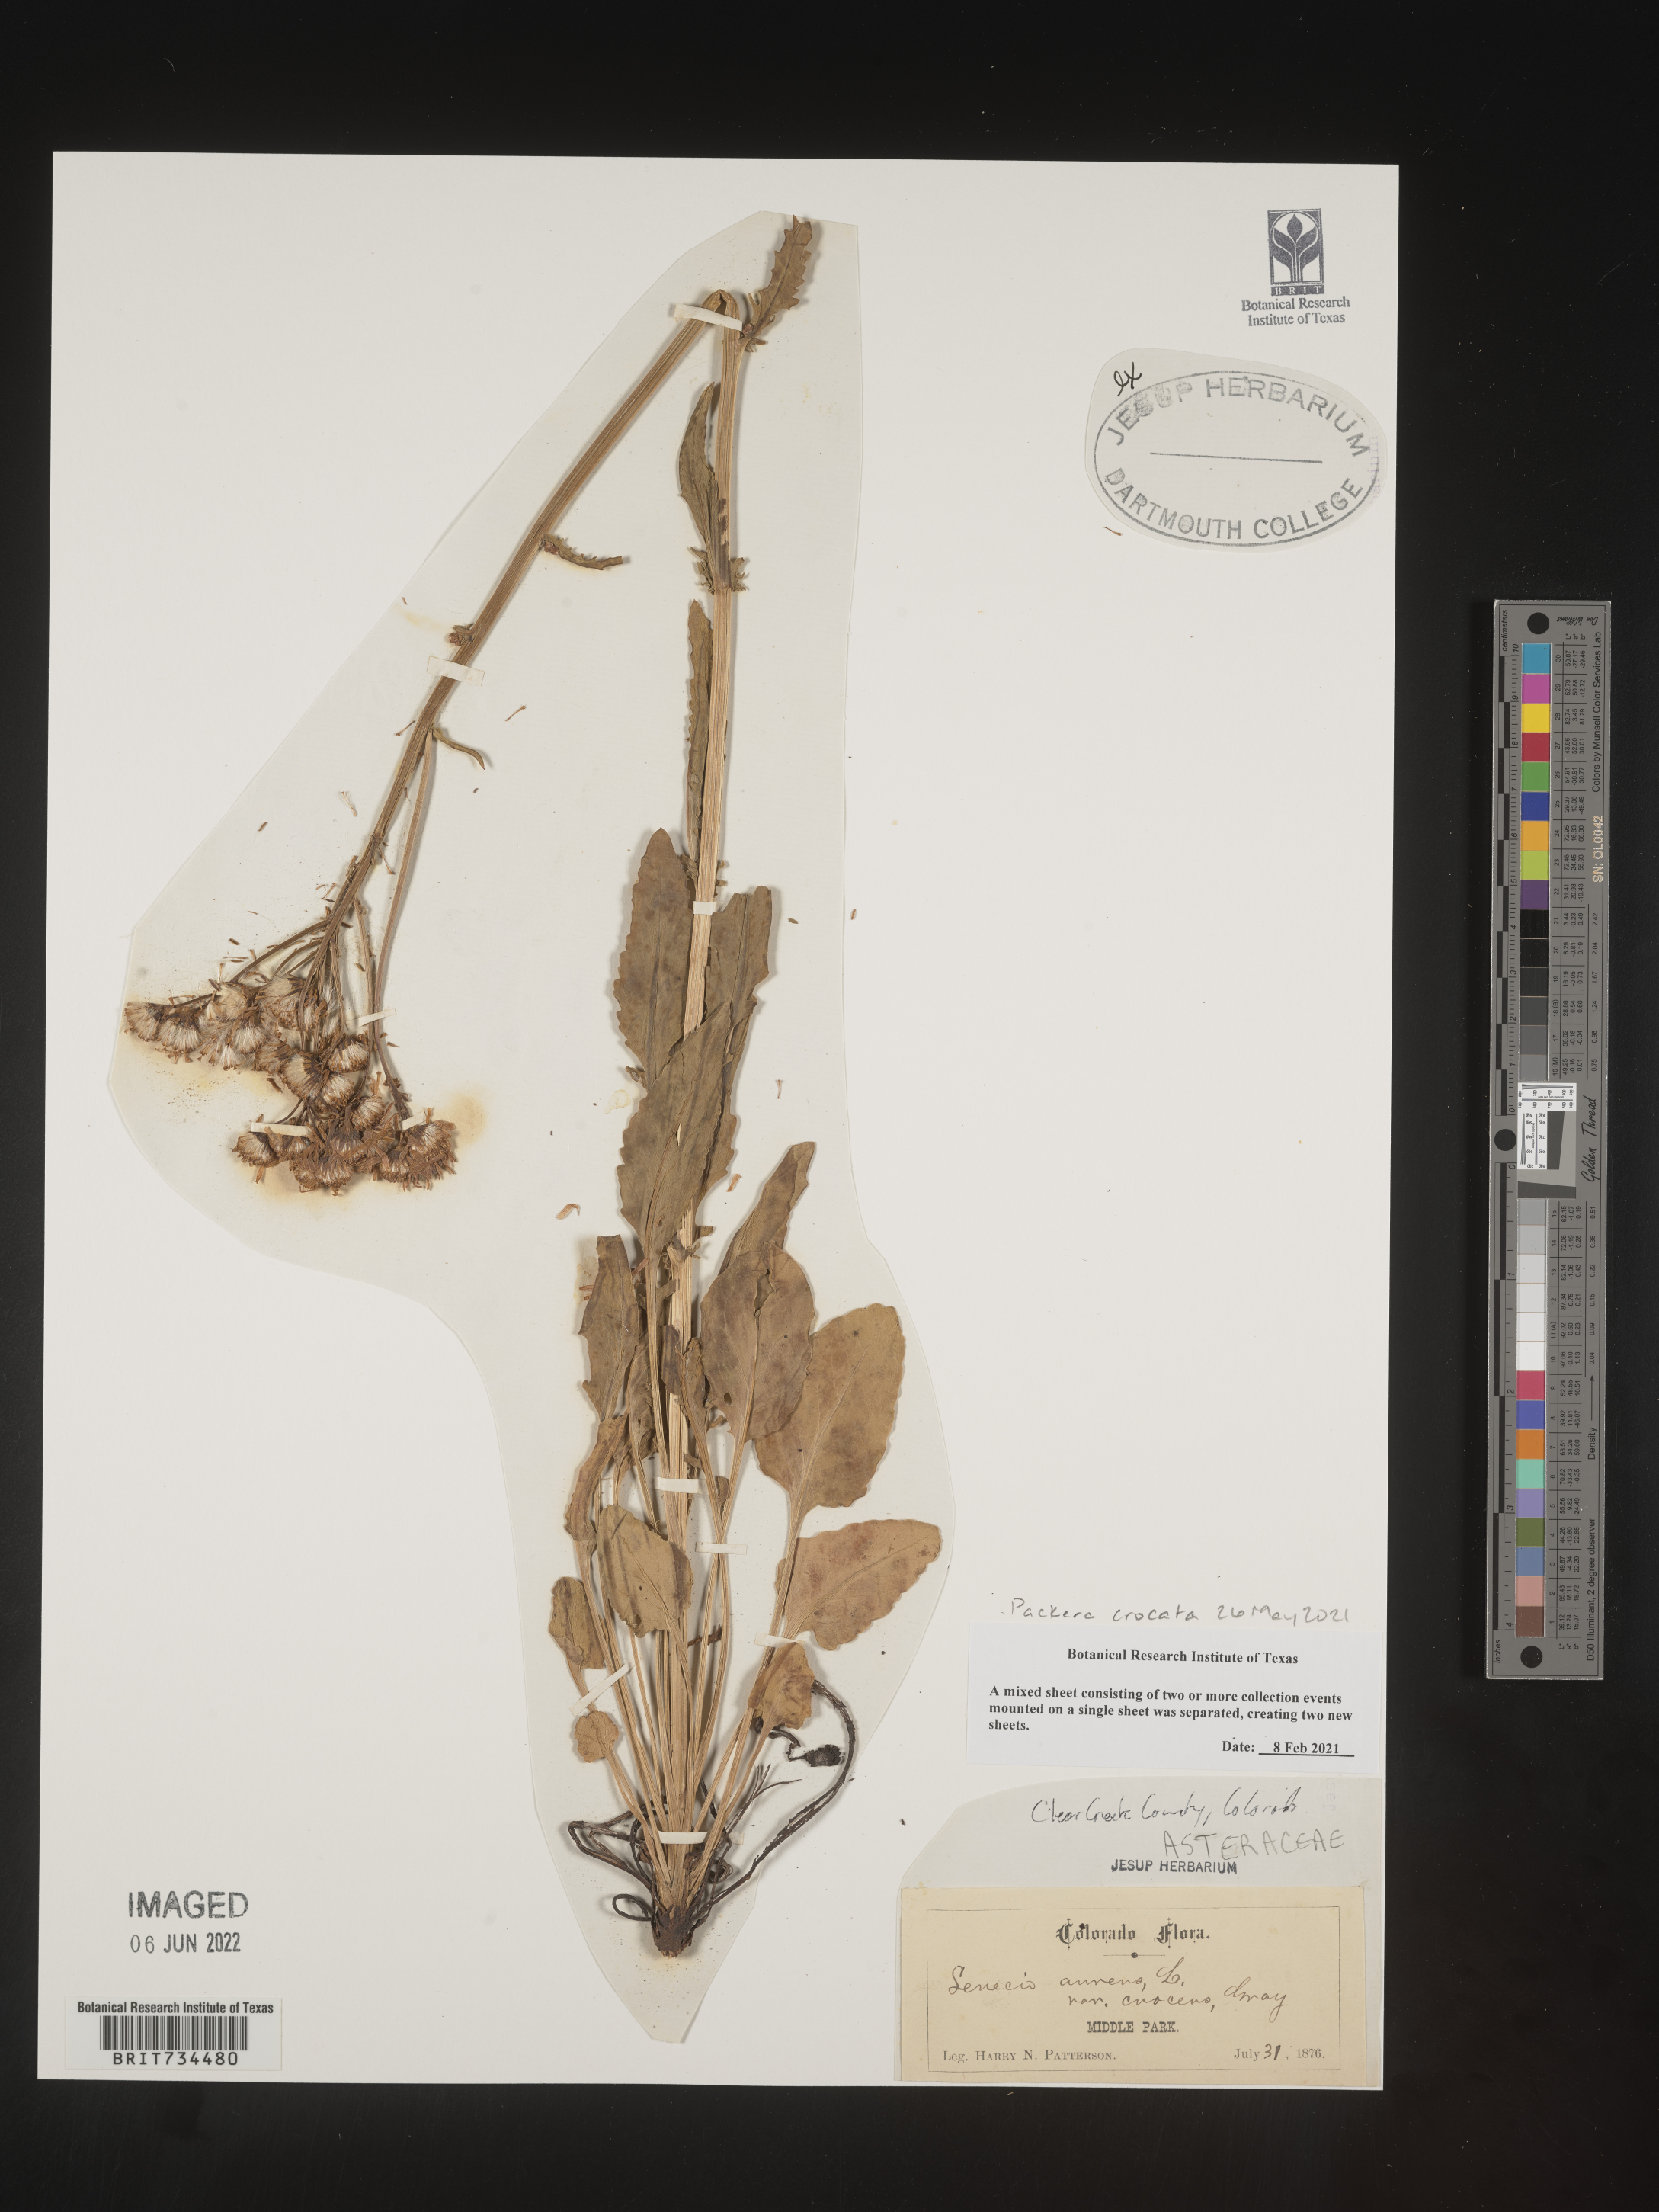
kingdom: Plantae
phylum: Tracheophyta
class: Magnoliopsida
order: Asterales
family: Asteraceae
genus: Packera
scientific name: Packera crocata
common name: Saffron ragwort
